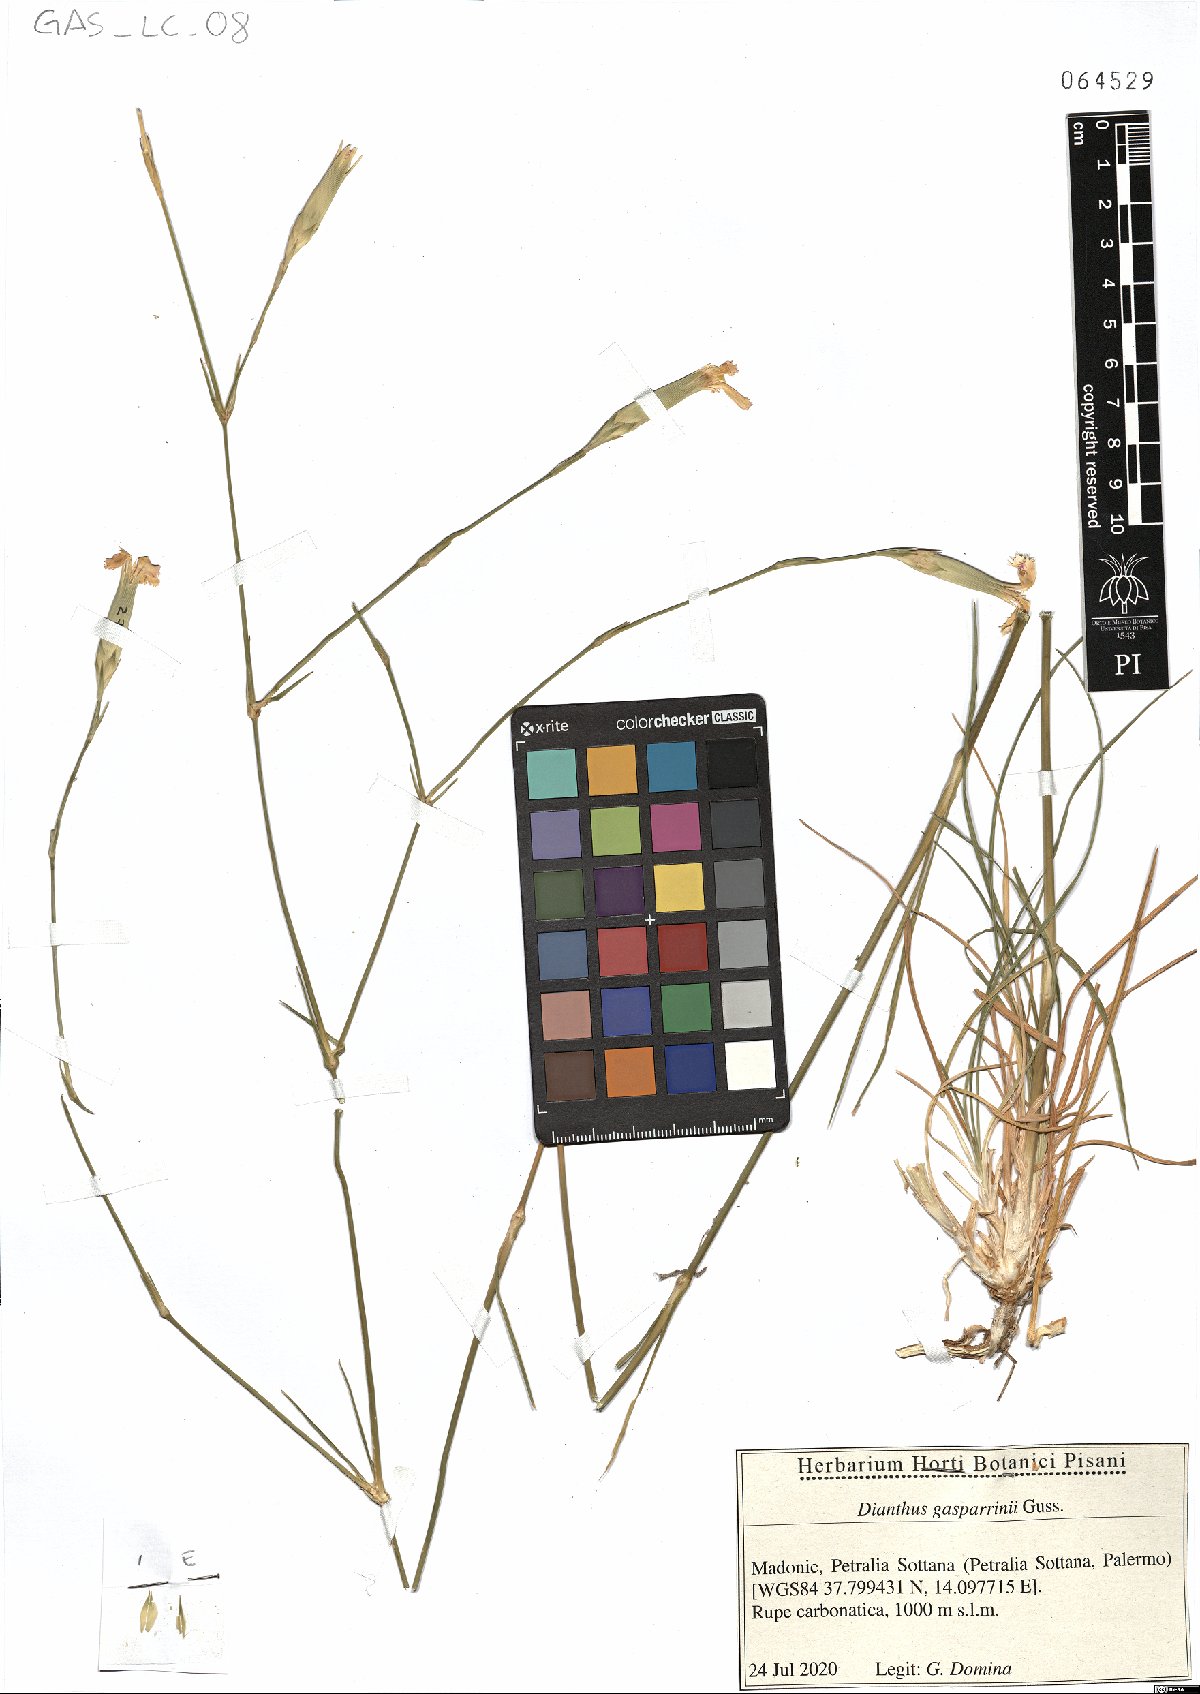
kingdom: Plantae
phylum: Tracheophyta
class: Magnoliopsida
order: Caryophyllales
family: Caryophyllaceae
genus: Dianthus
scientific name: Dianthus gasparrinii
